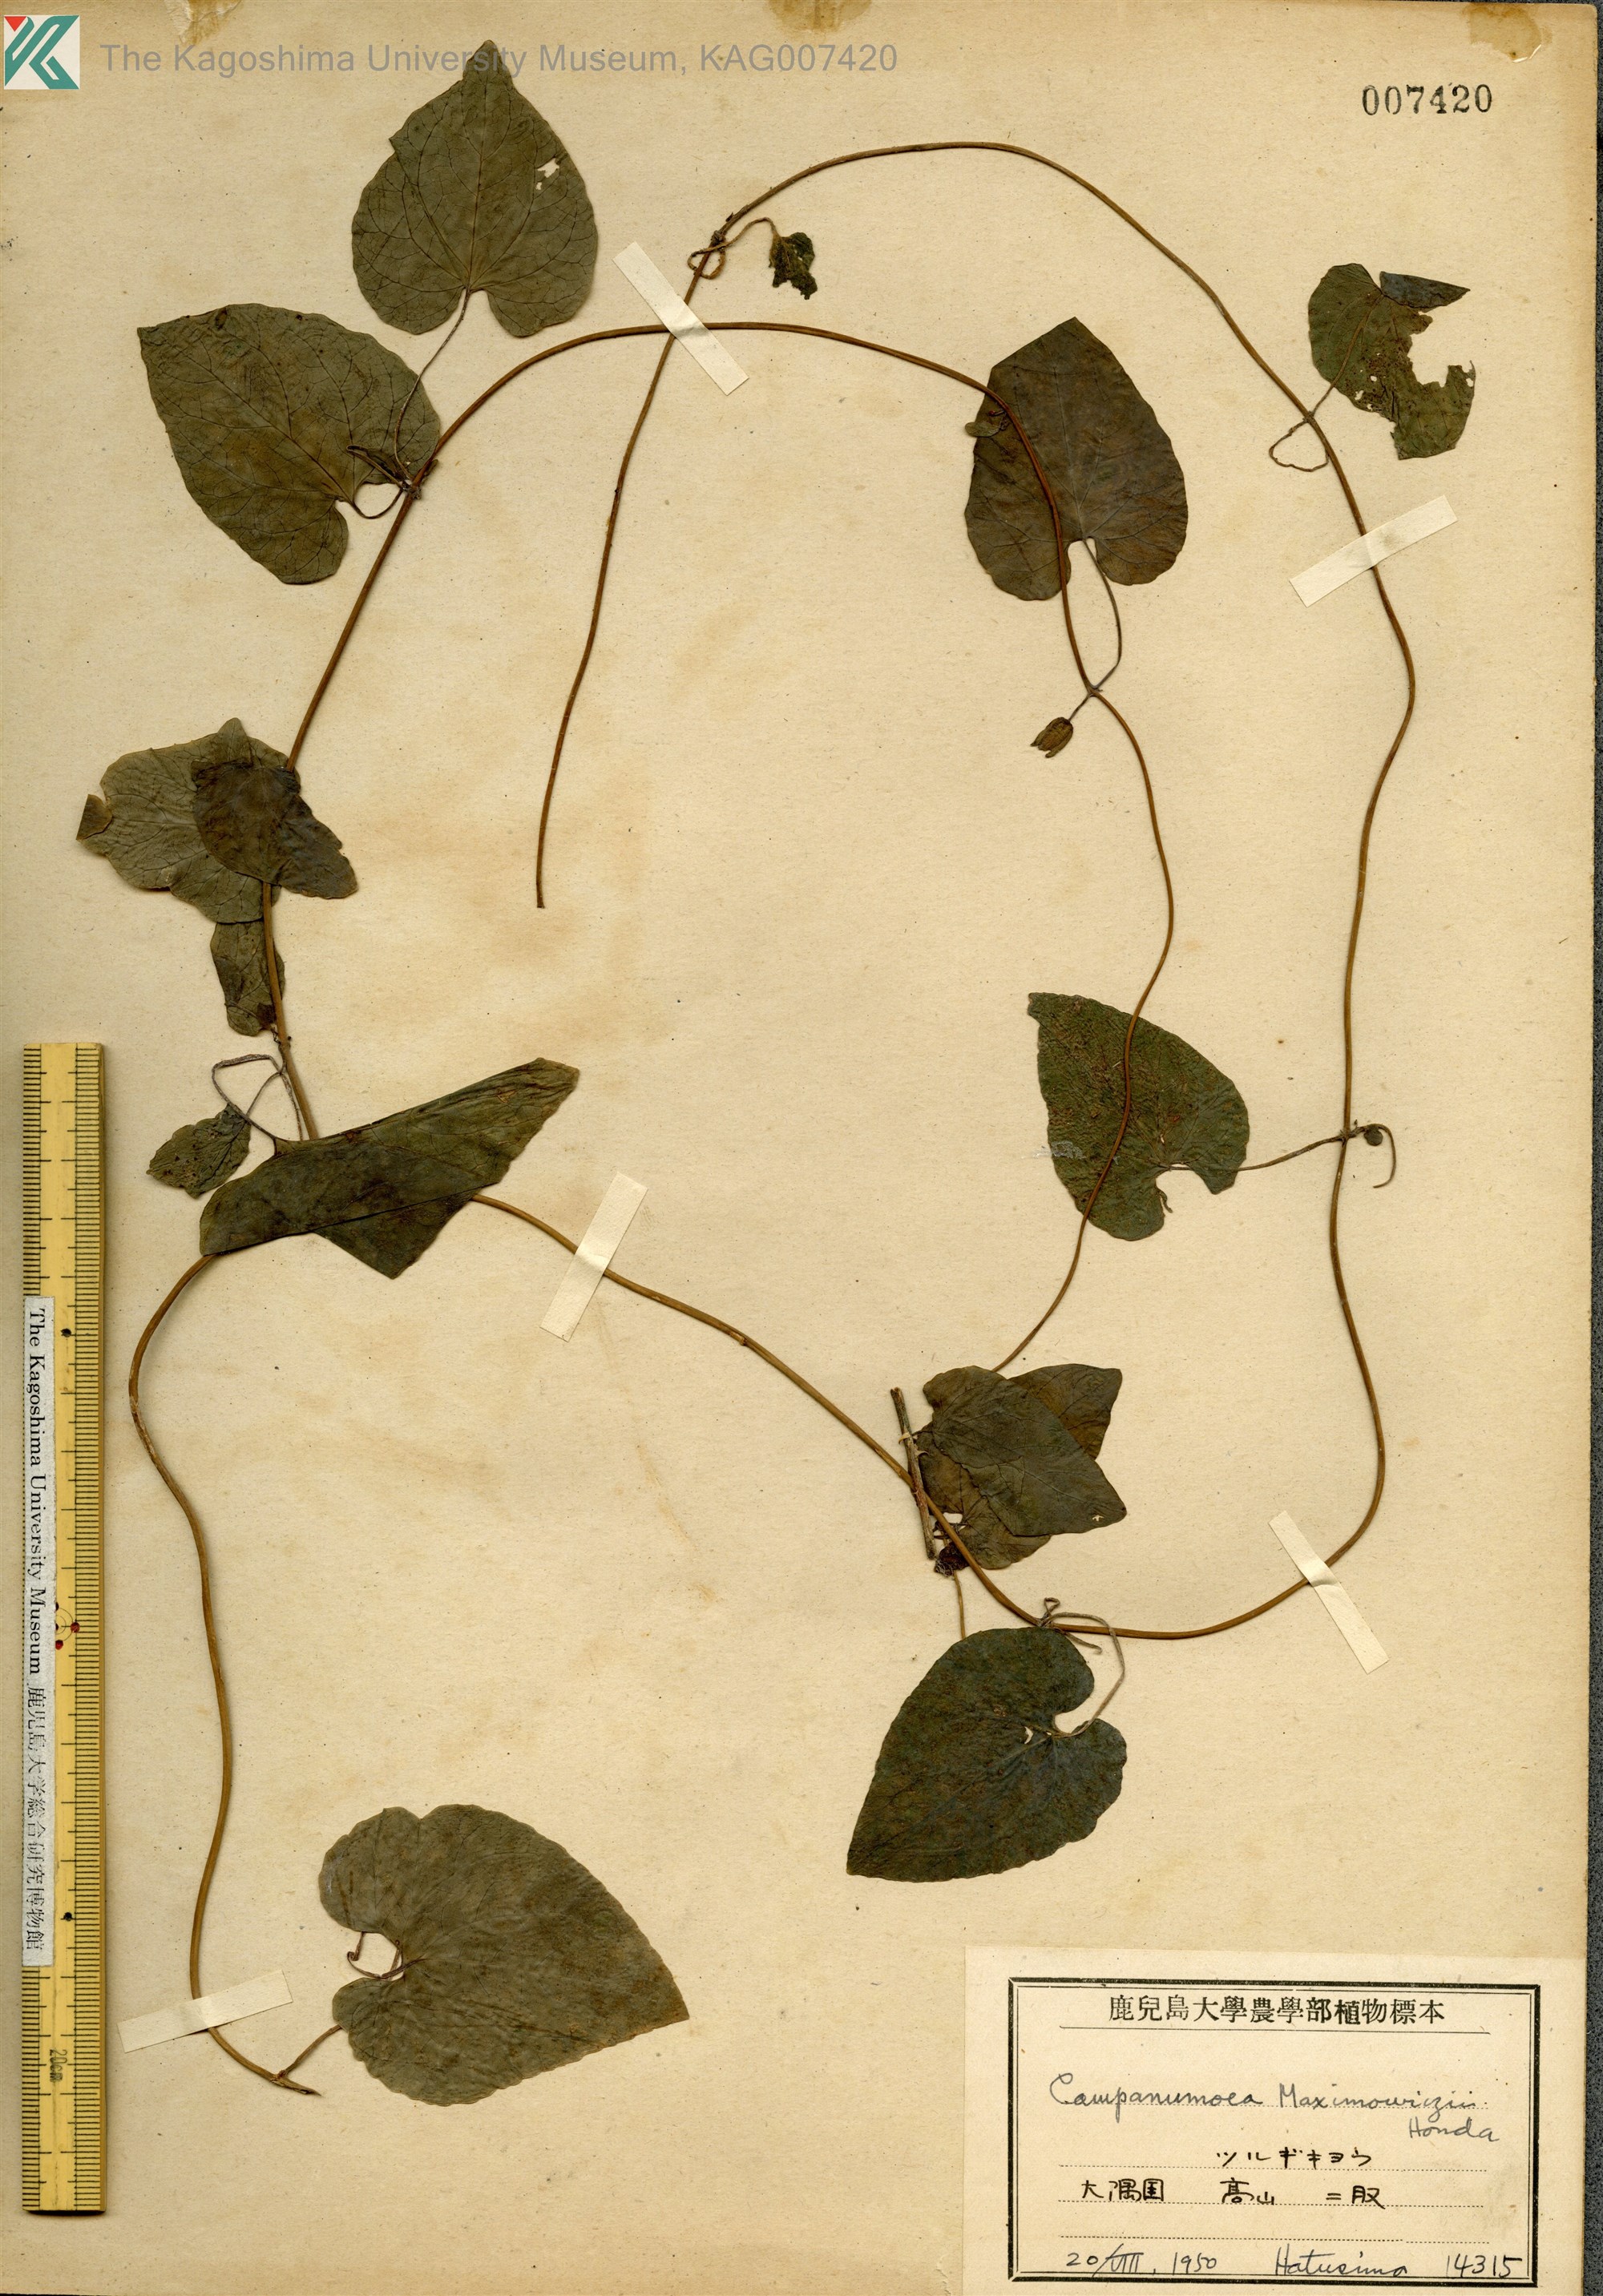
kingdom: Plantae
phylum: Tracheophyta
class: Magnoliopsida
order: Asterales
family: Campanulaceae
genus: Codonopsis
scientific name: Codonopsis javanica
